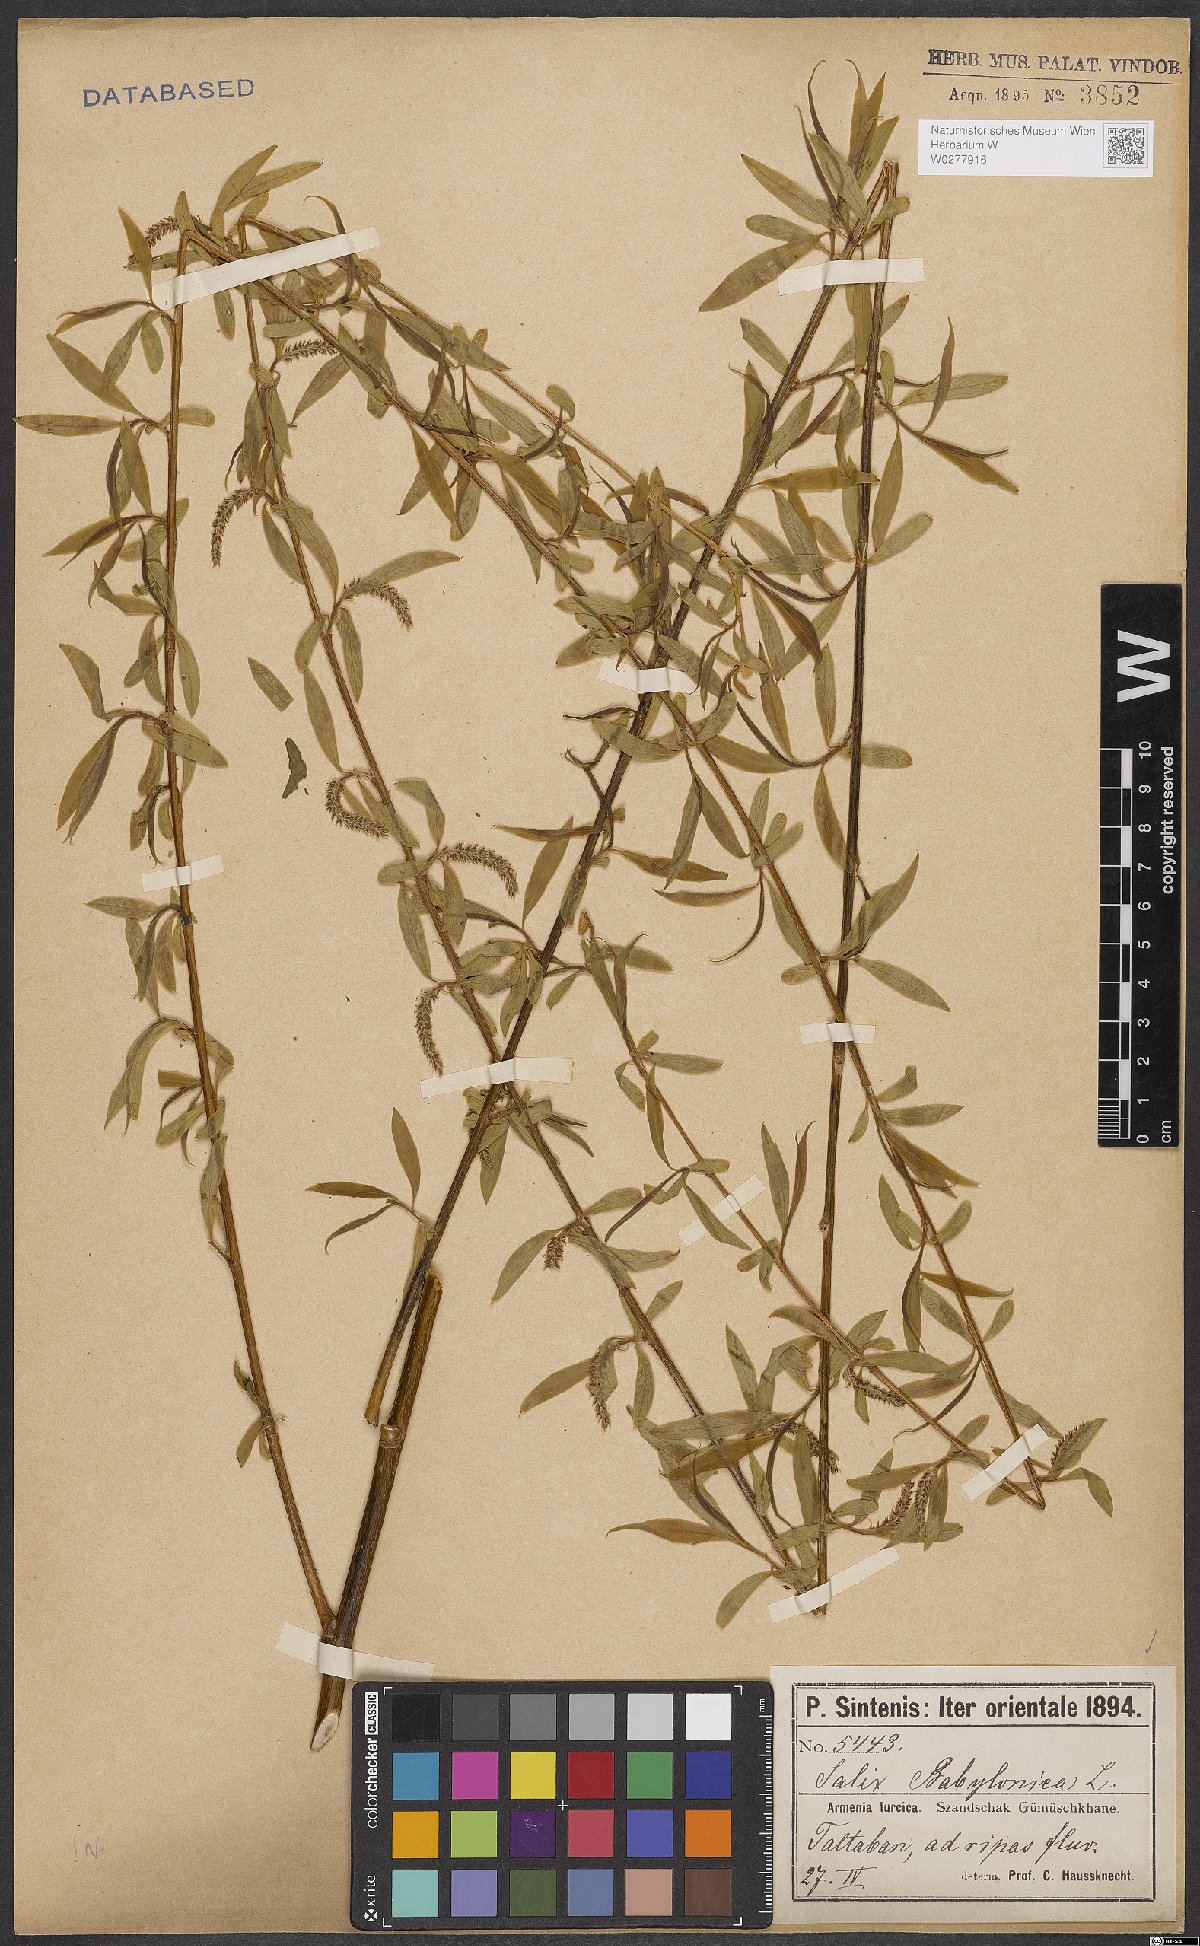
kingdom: Plantae
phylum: Tracheophyta
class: Magnoliopsida
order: Malpighiales
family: Salicaceae
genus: Salix
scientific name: Salix babylonica
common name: Weeping willow
